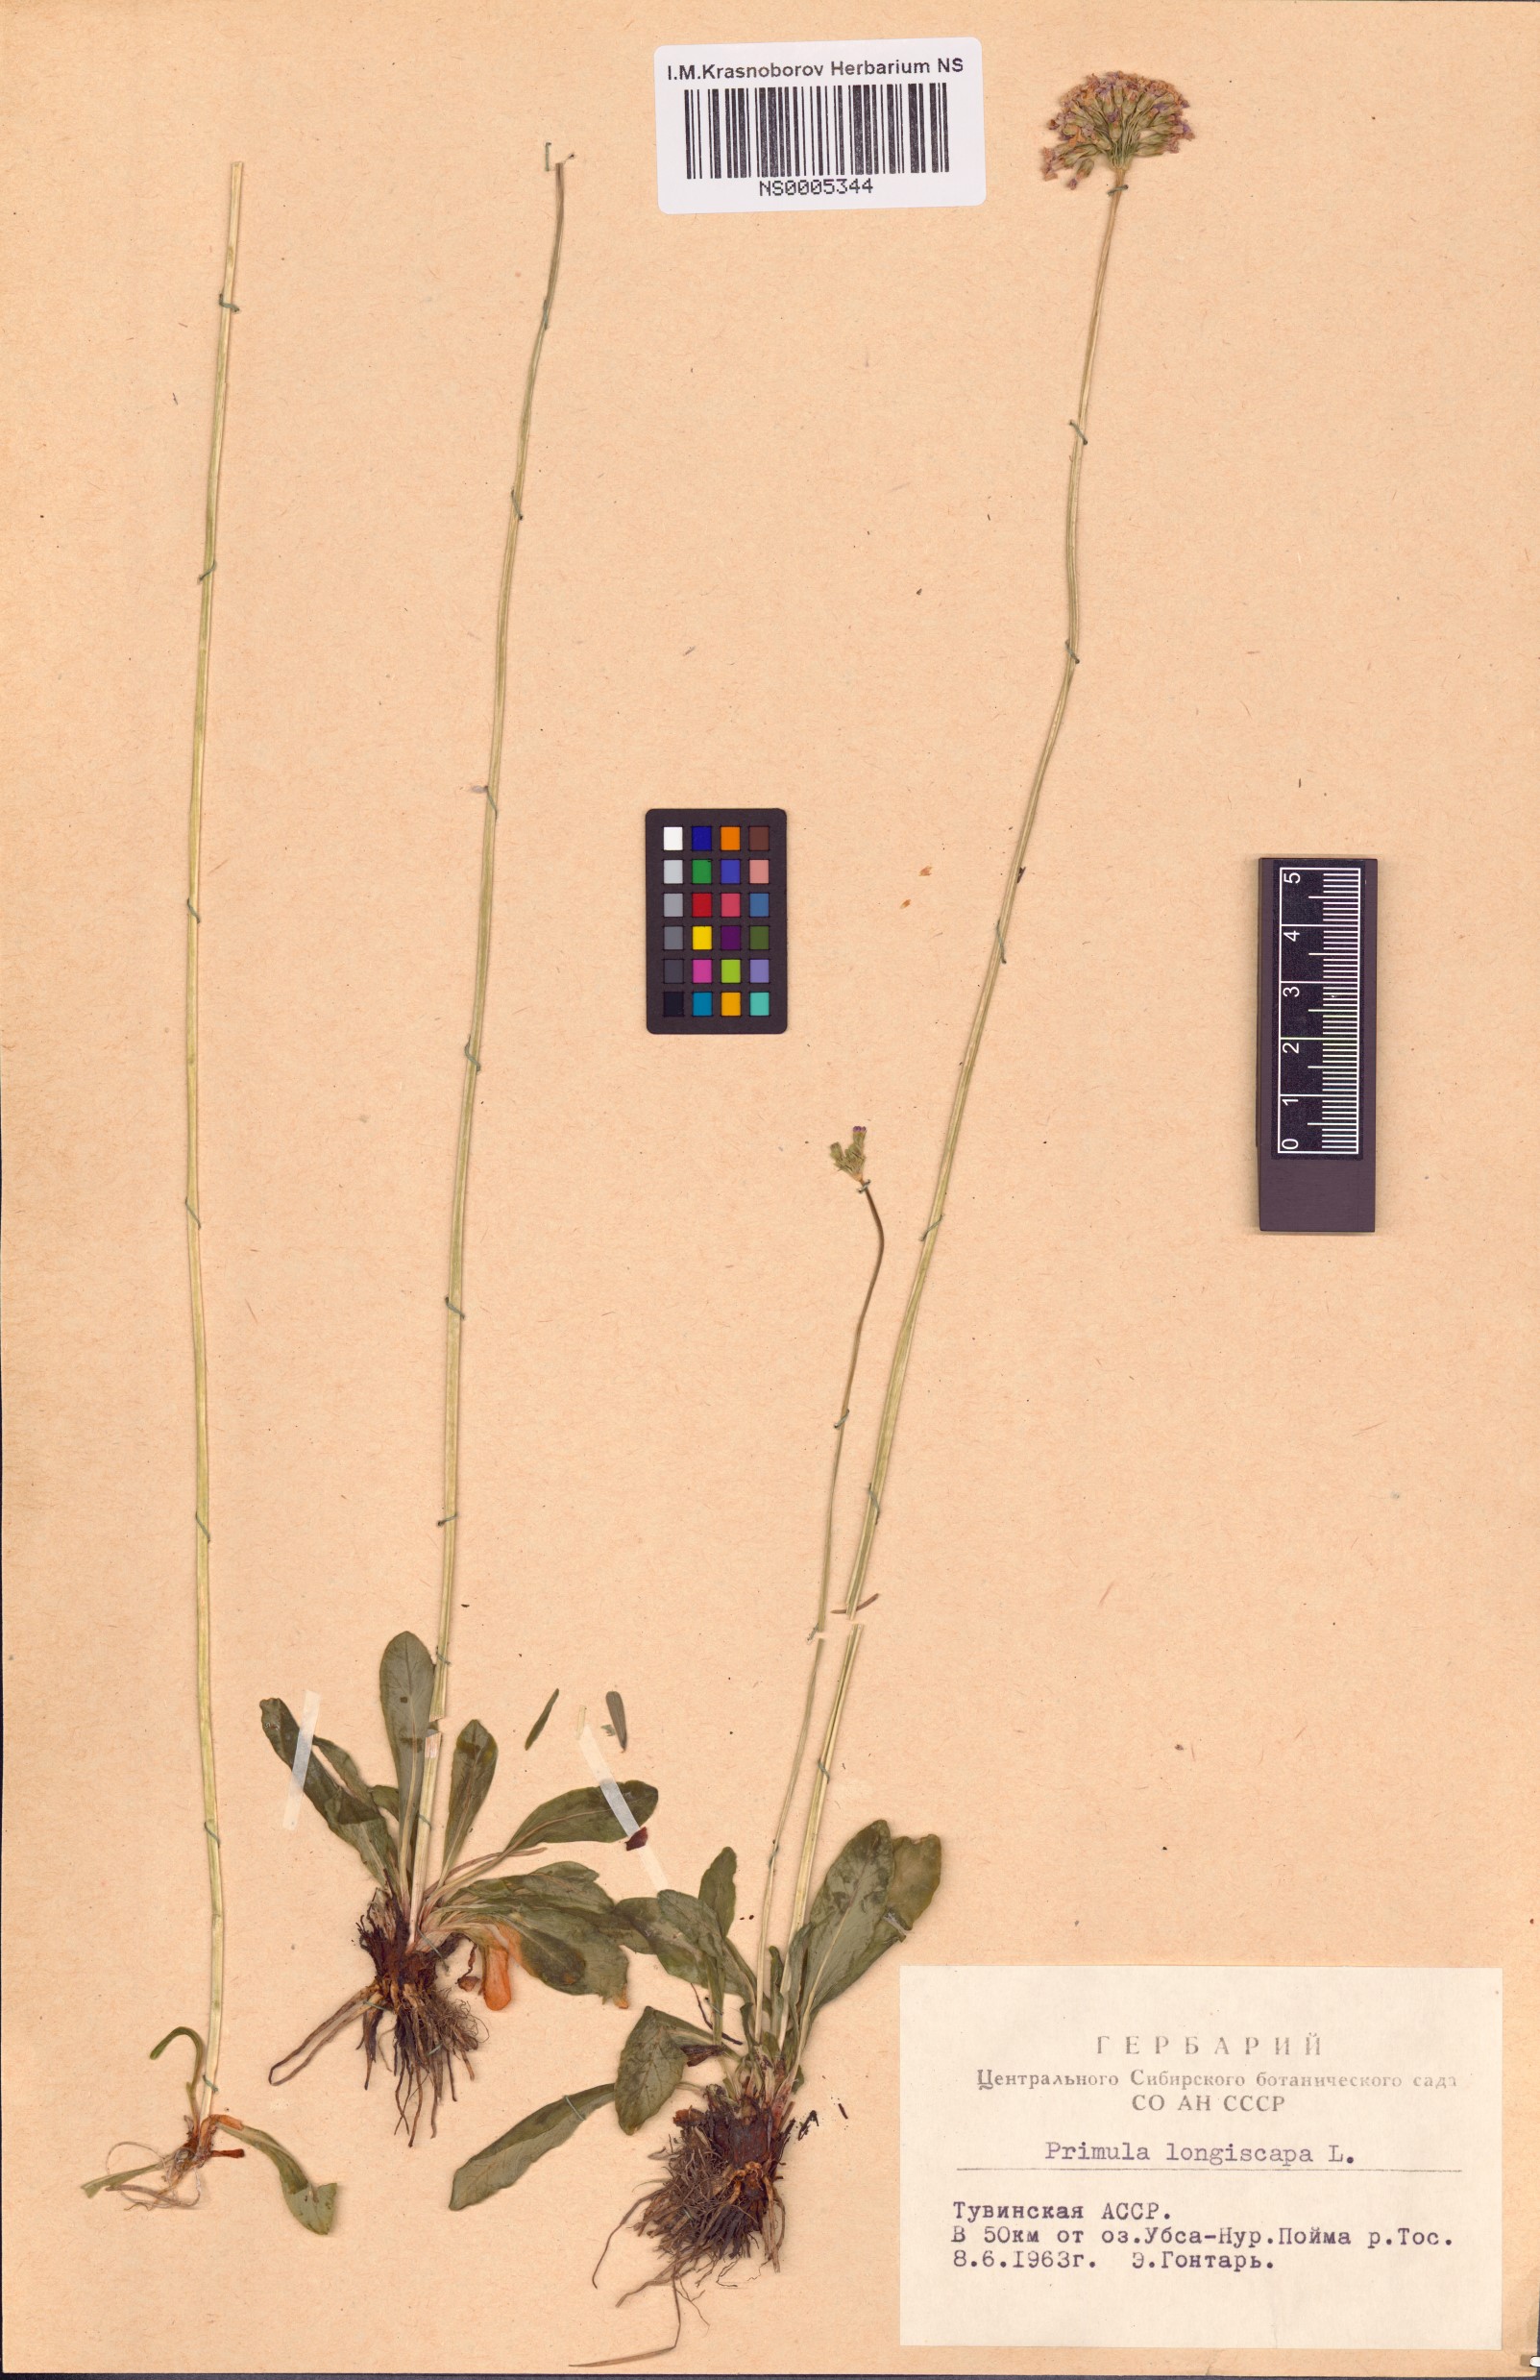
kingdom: Plantae
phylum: Tracheophyta
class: Magnoliopsida
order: Ericales
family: Primulaceae
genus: Primula
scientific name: Primula longiscapa
